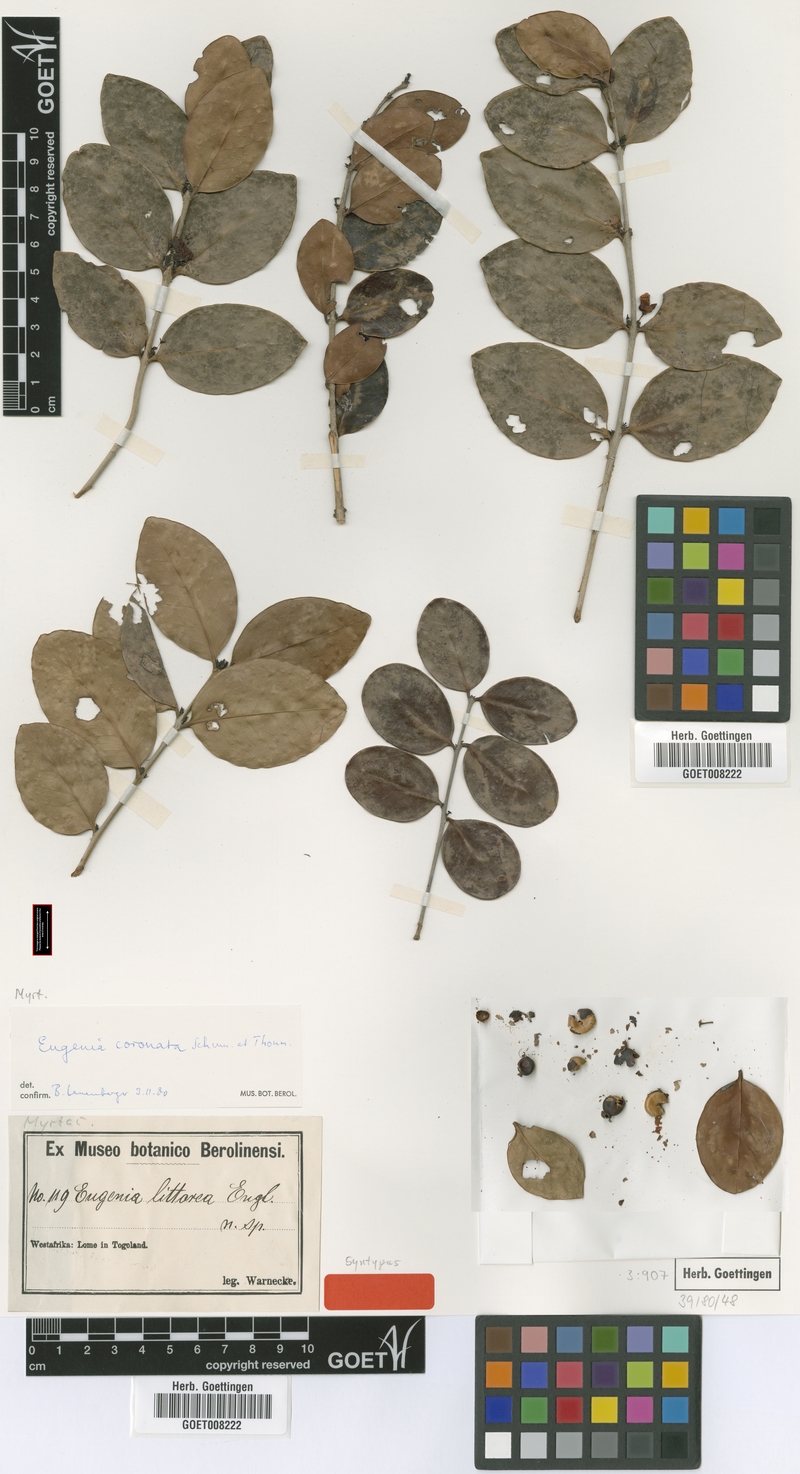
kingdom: Plantae
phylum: Tracheophyta
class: Magnoliopsida
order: Myrtales
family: Myrtaceae
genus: Eugenia
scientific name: Eugenia coronata
